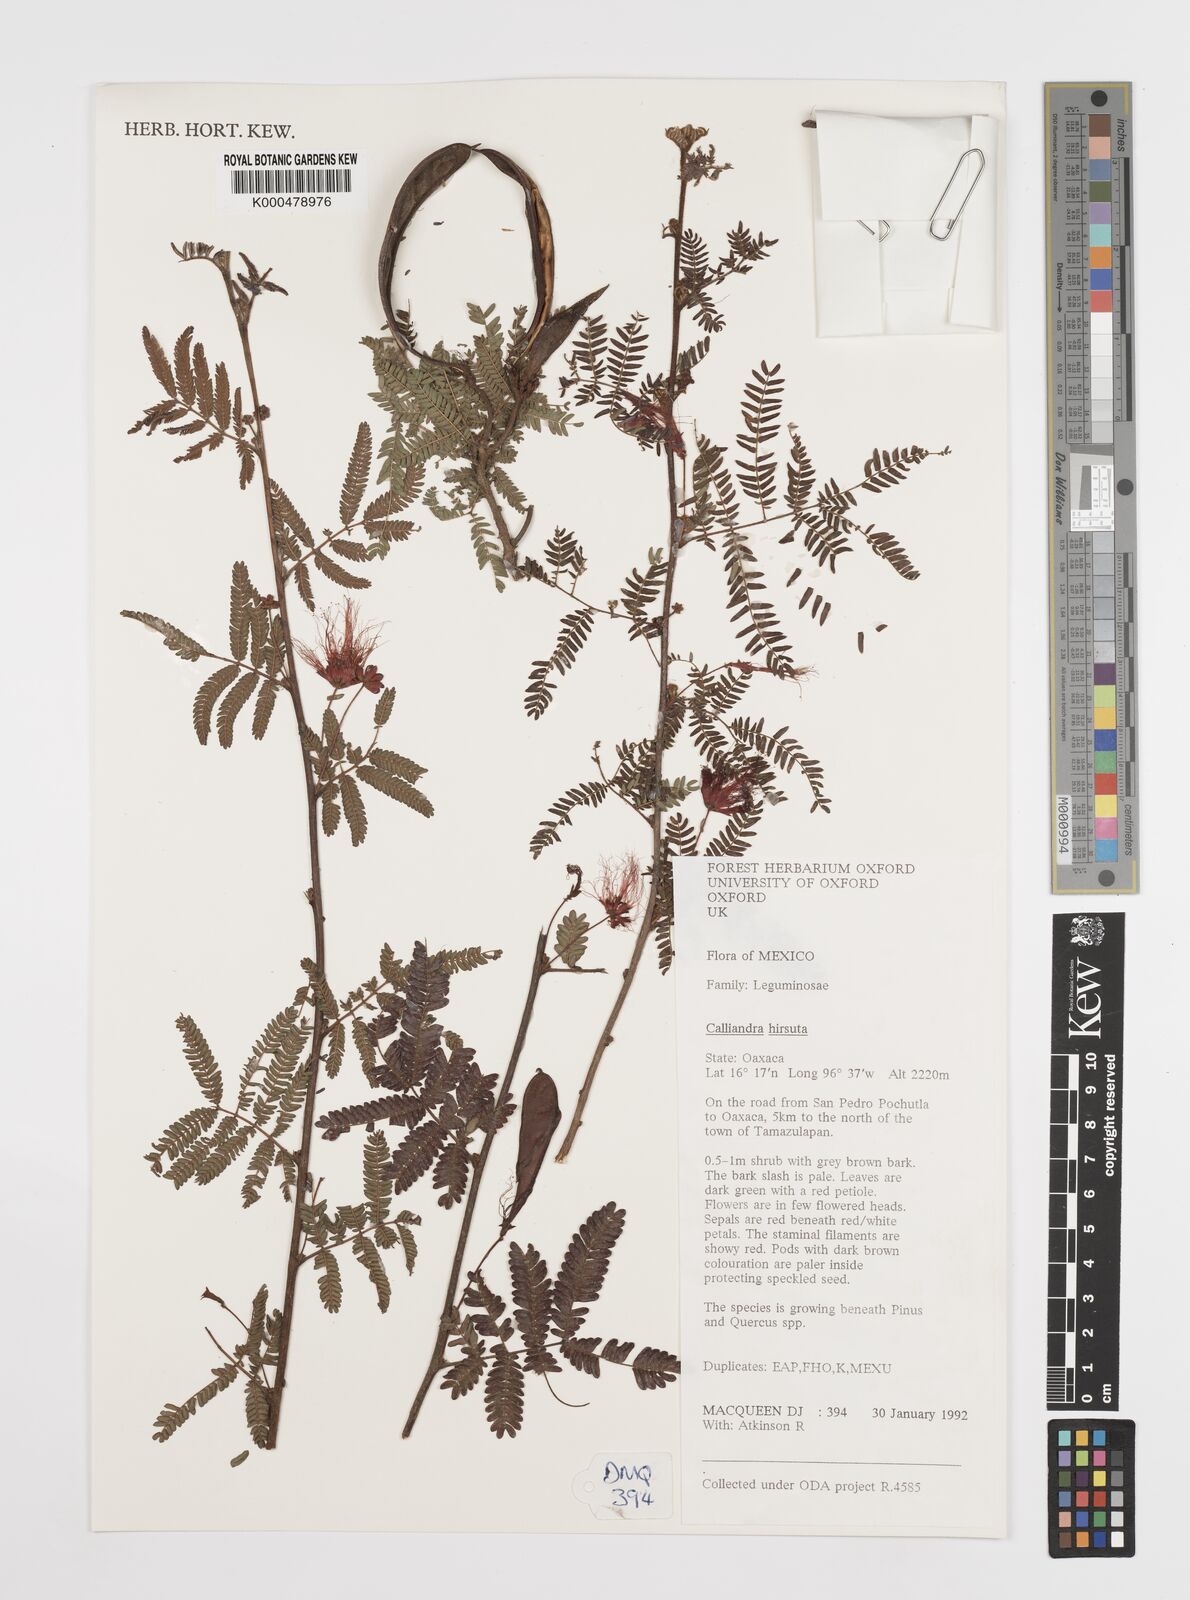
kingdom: Plantae
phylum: Tracheophyta
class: Magnoliopsida
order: Fabales
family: Fabaceae
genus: Calliandra
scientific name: Calliandra hirsuta
